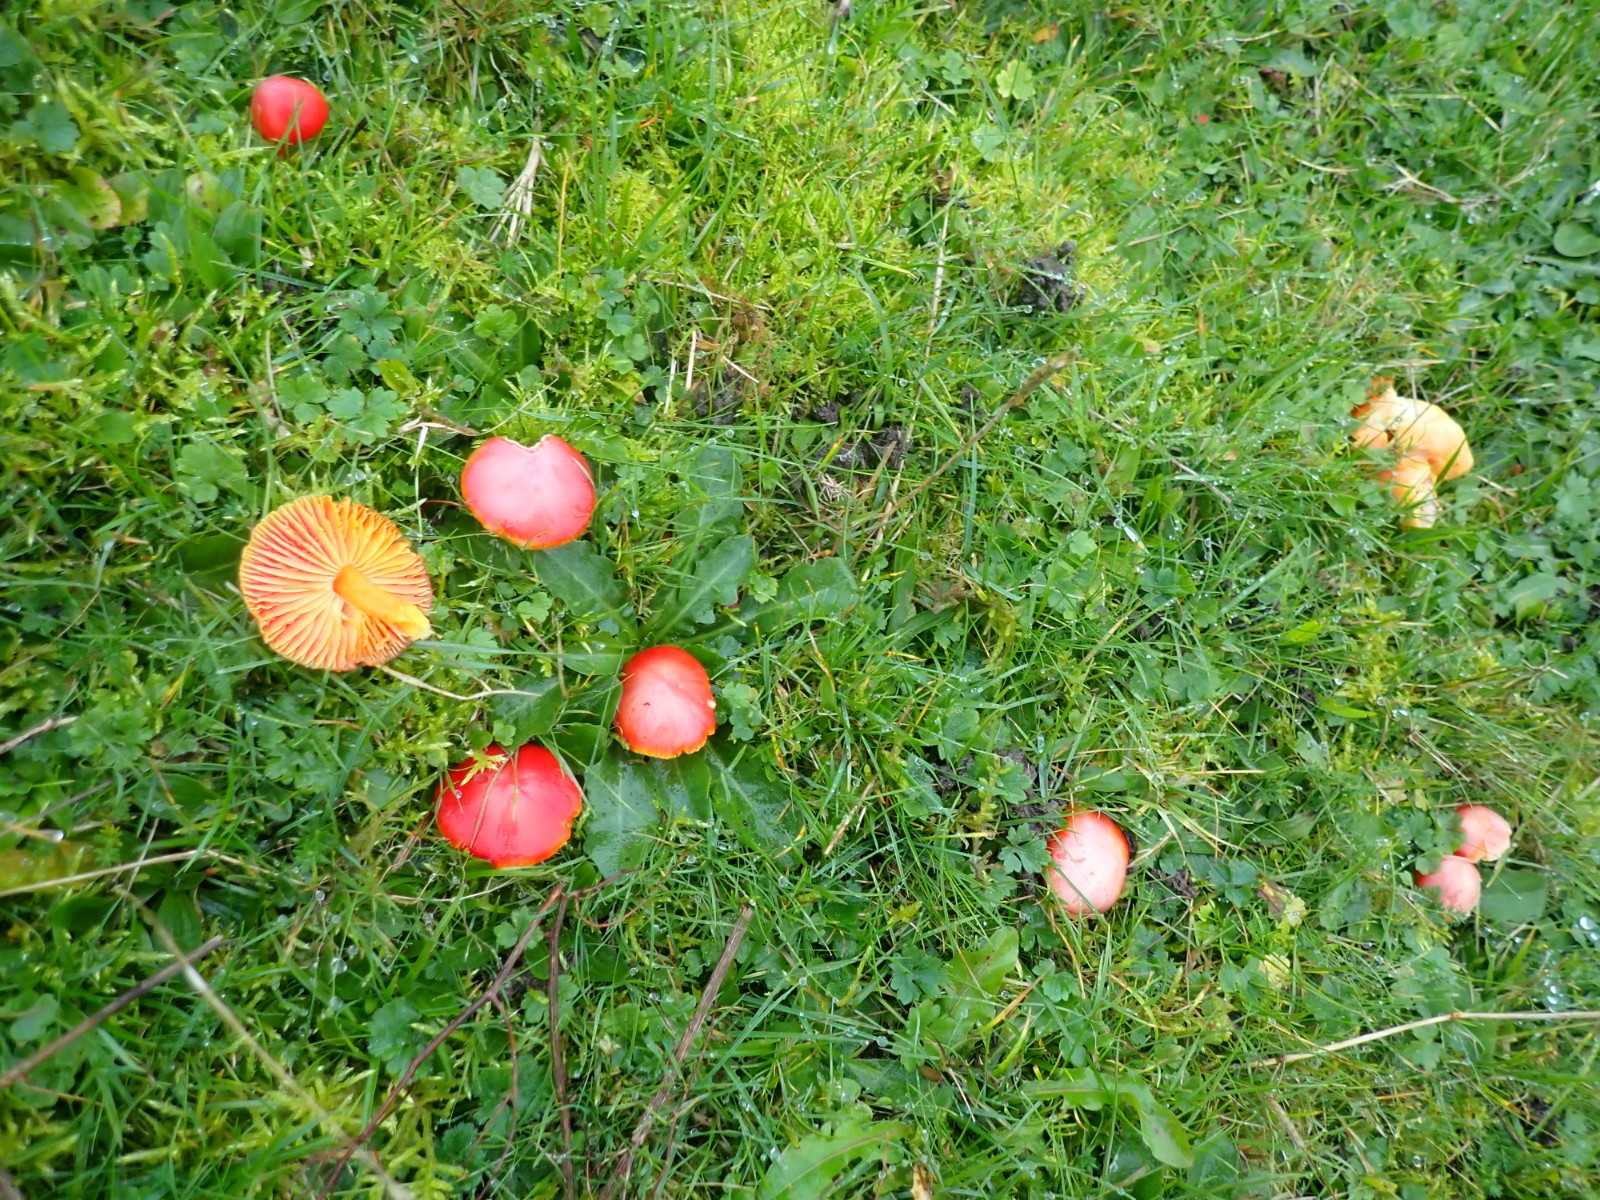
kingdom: Fungi
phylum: Basidiomycota
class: Agaricomycetes
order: Agaricales
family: Hygrophoraceae
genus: Hygrocybe
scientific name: Hygrocybe coccinea
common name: cinnober-vokshat
